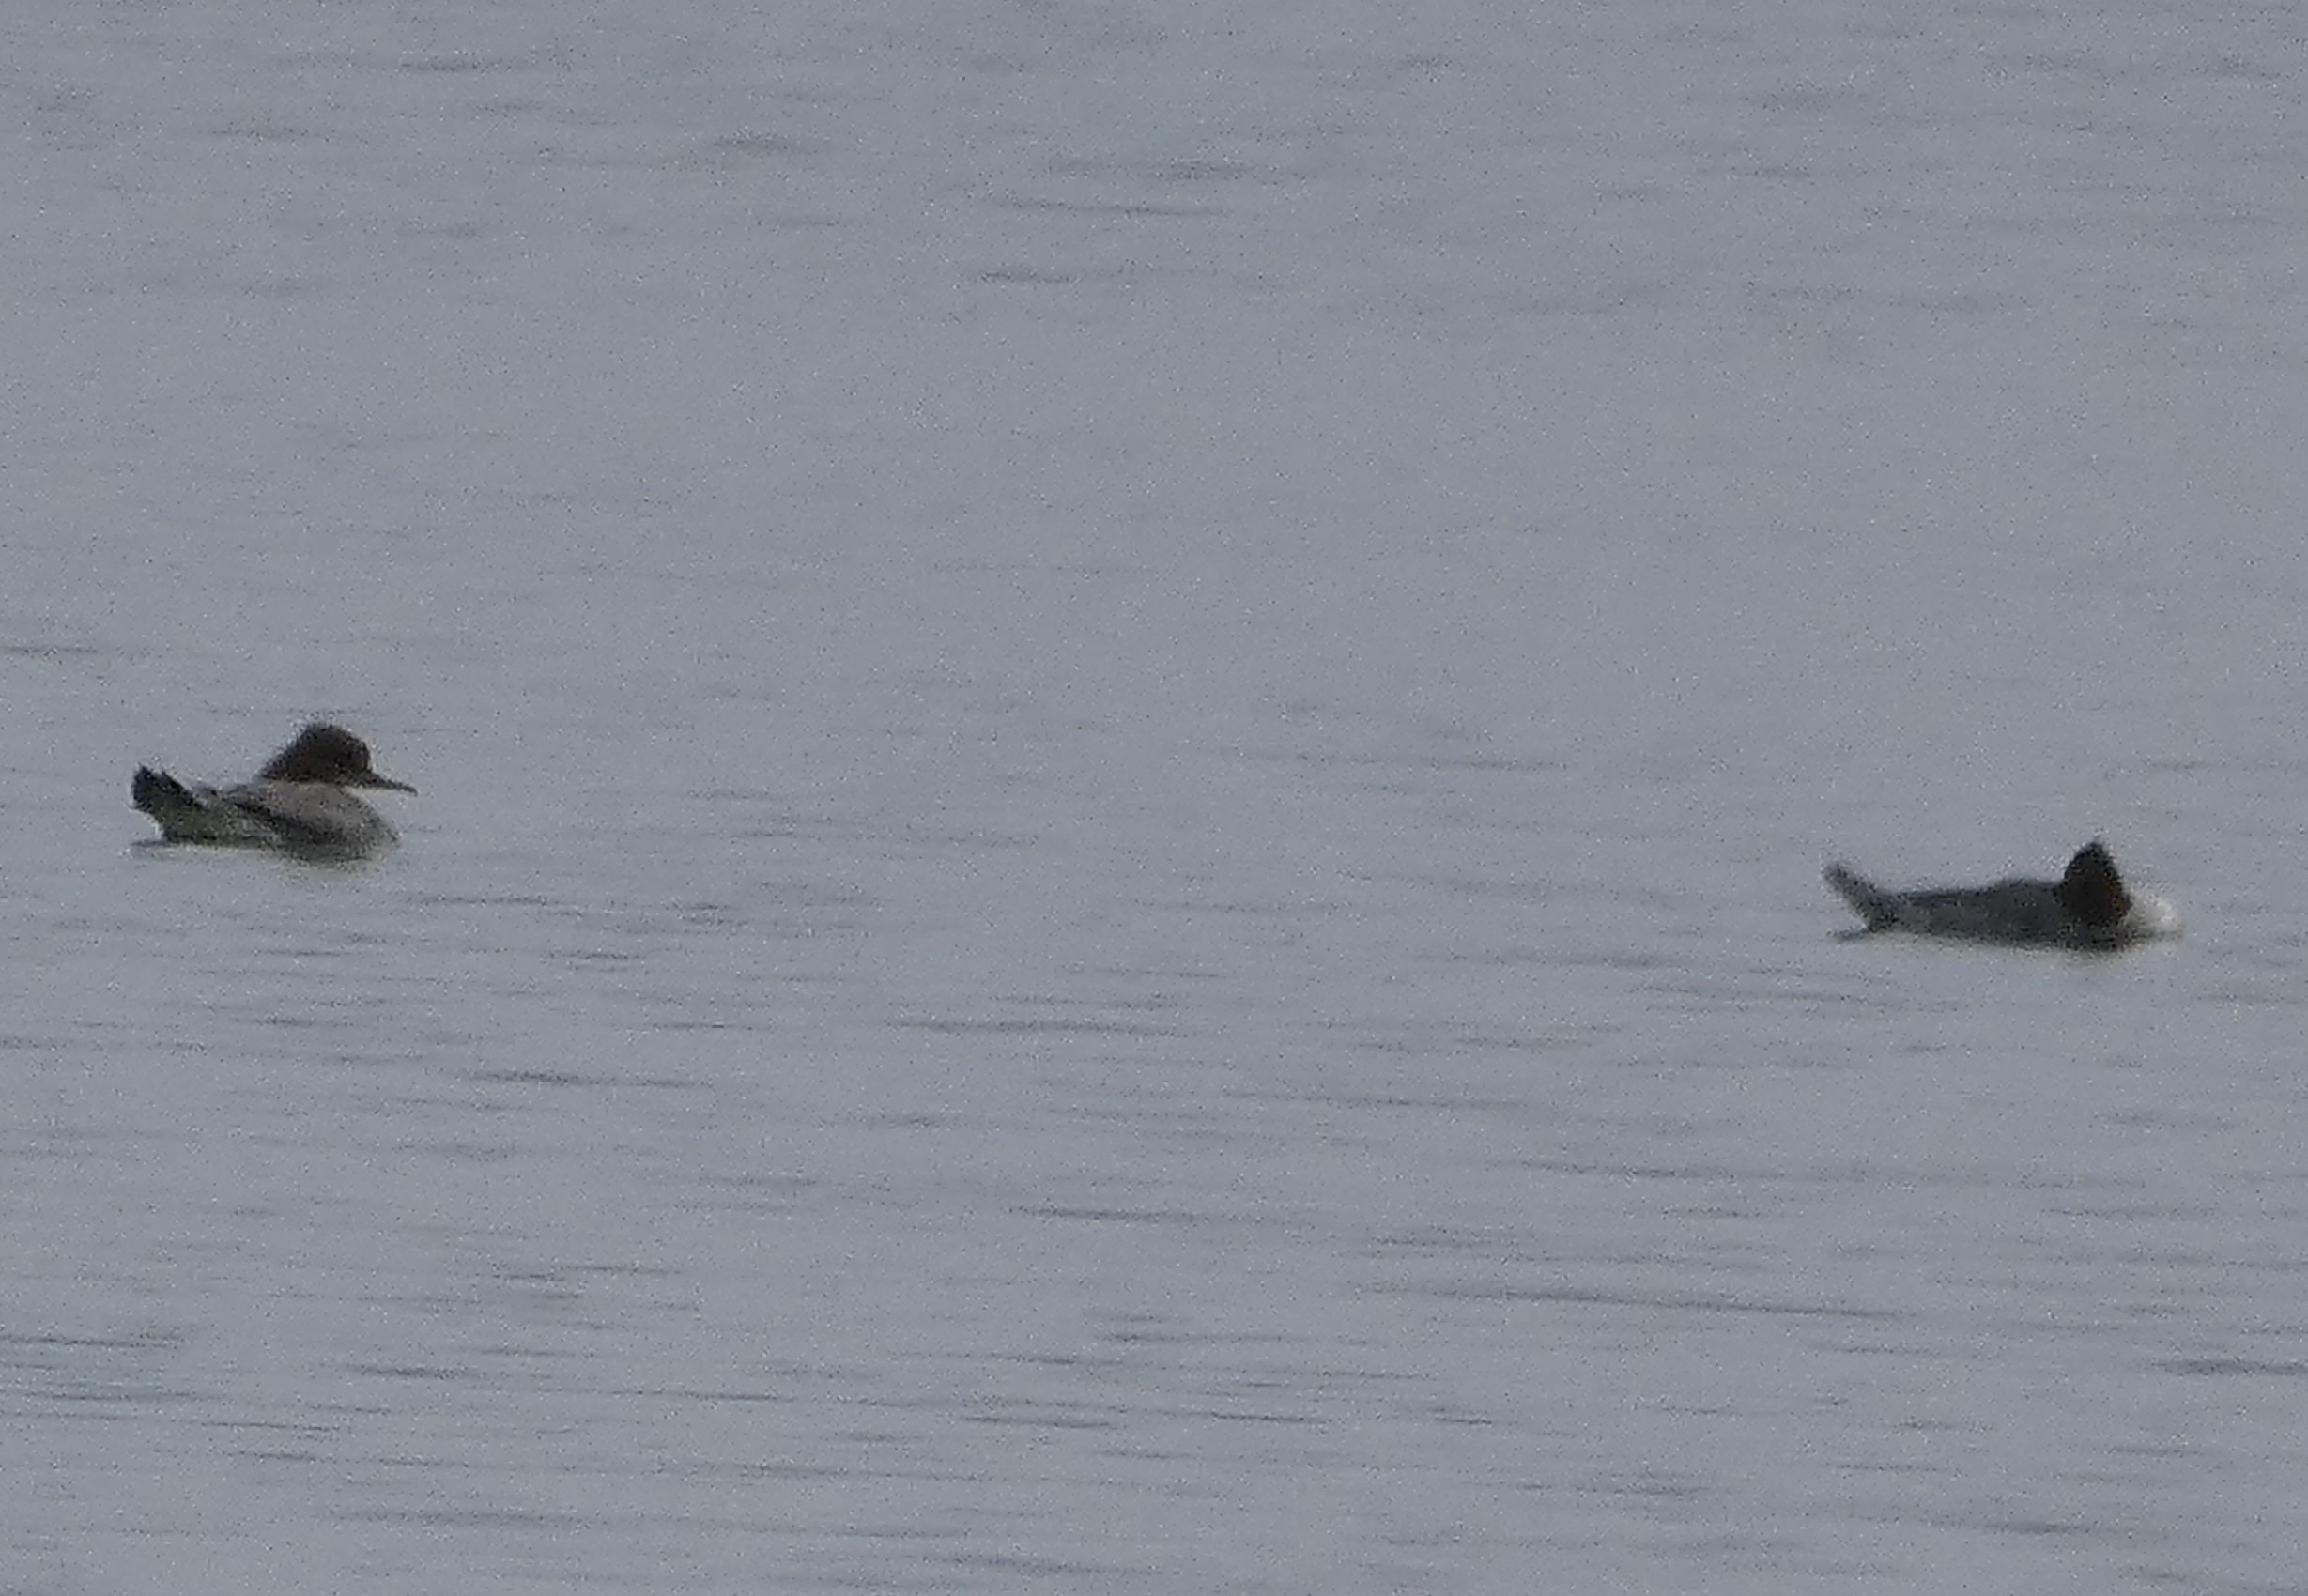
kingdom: Animalia
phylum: Chordata
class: Aves
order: Anseriformes
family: Anatidae
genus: Mergus
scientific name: Mergus merganser
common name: Stor skallesluger
